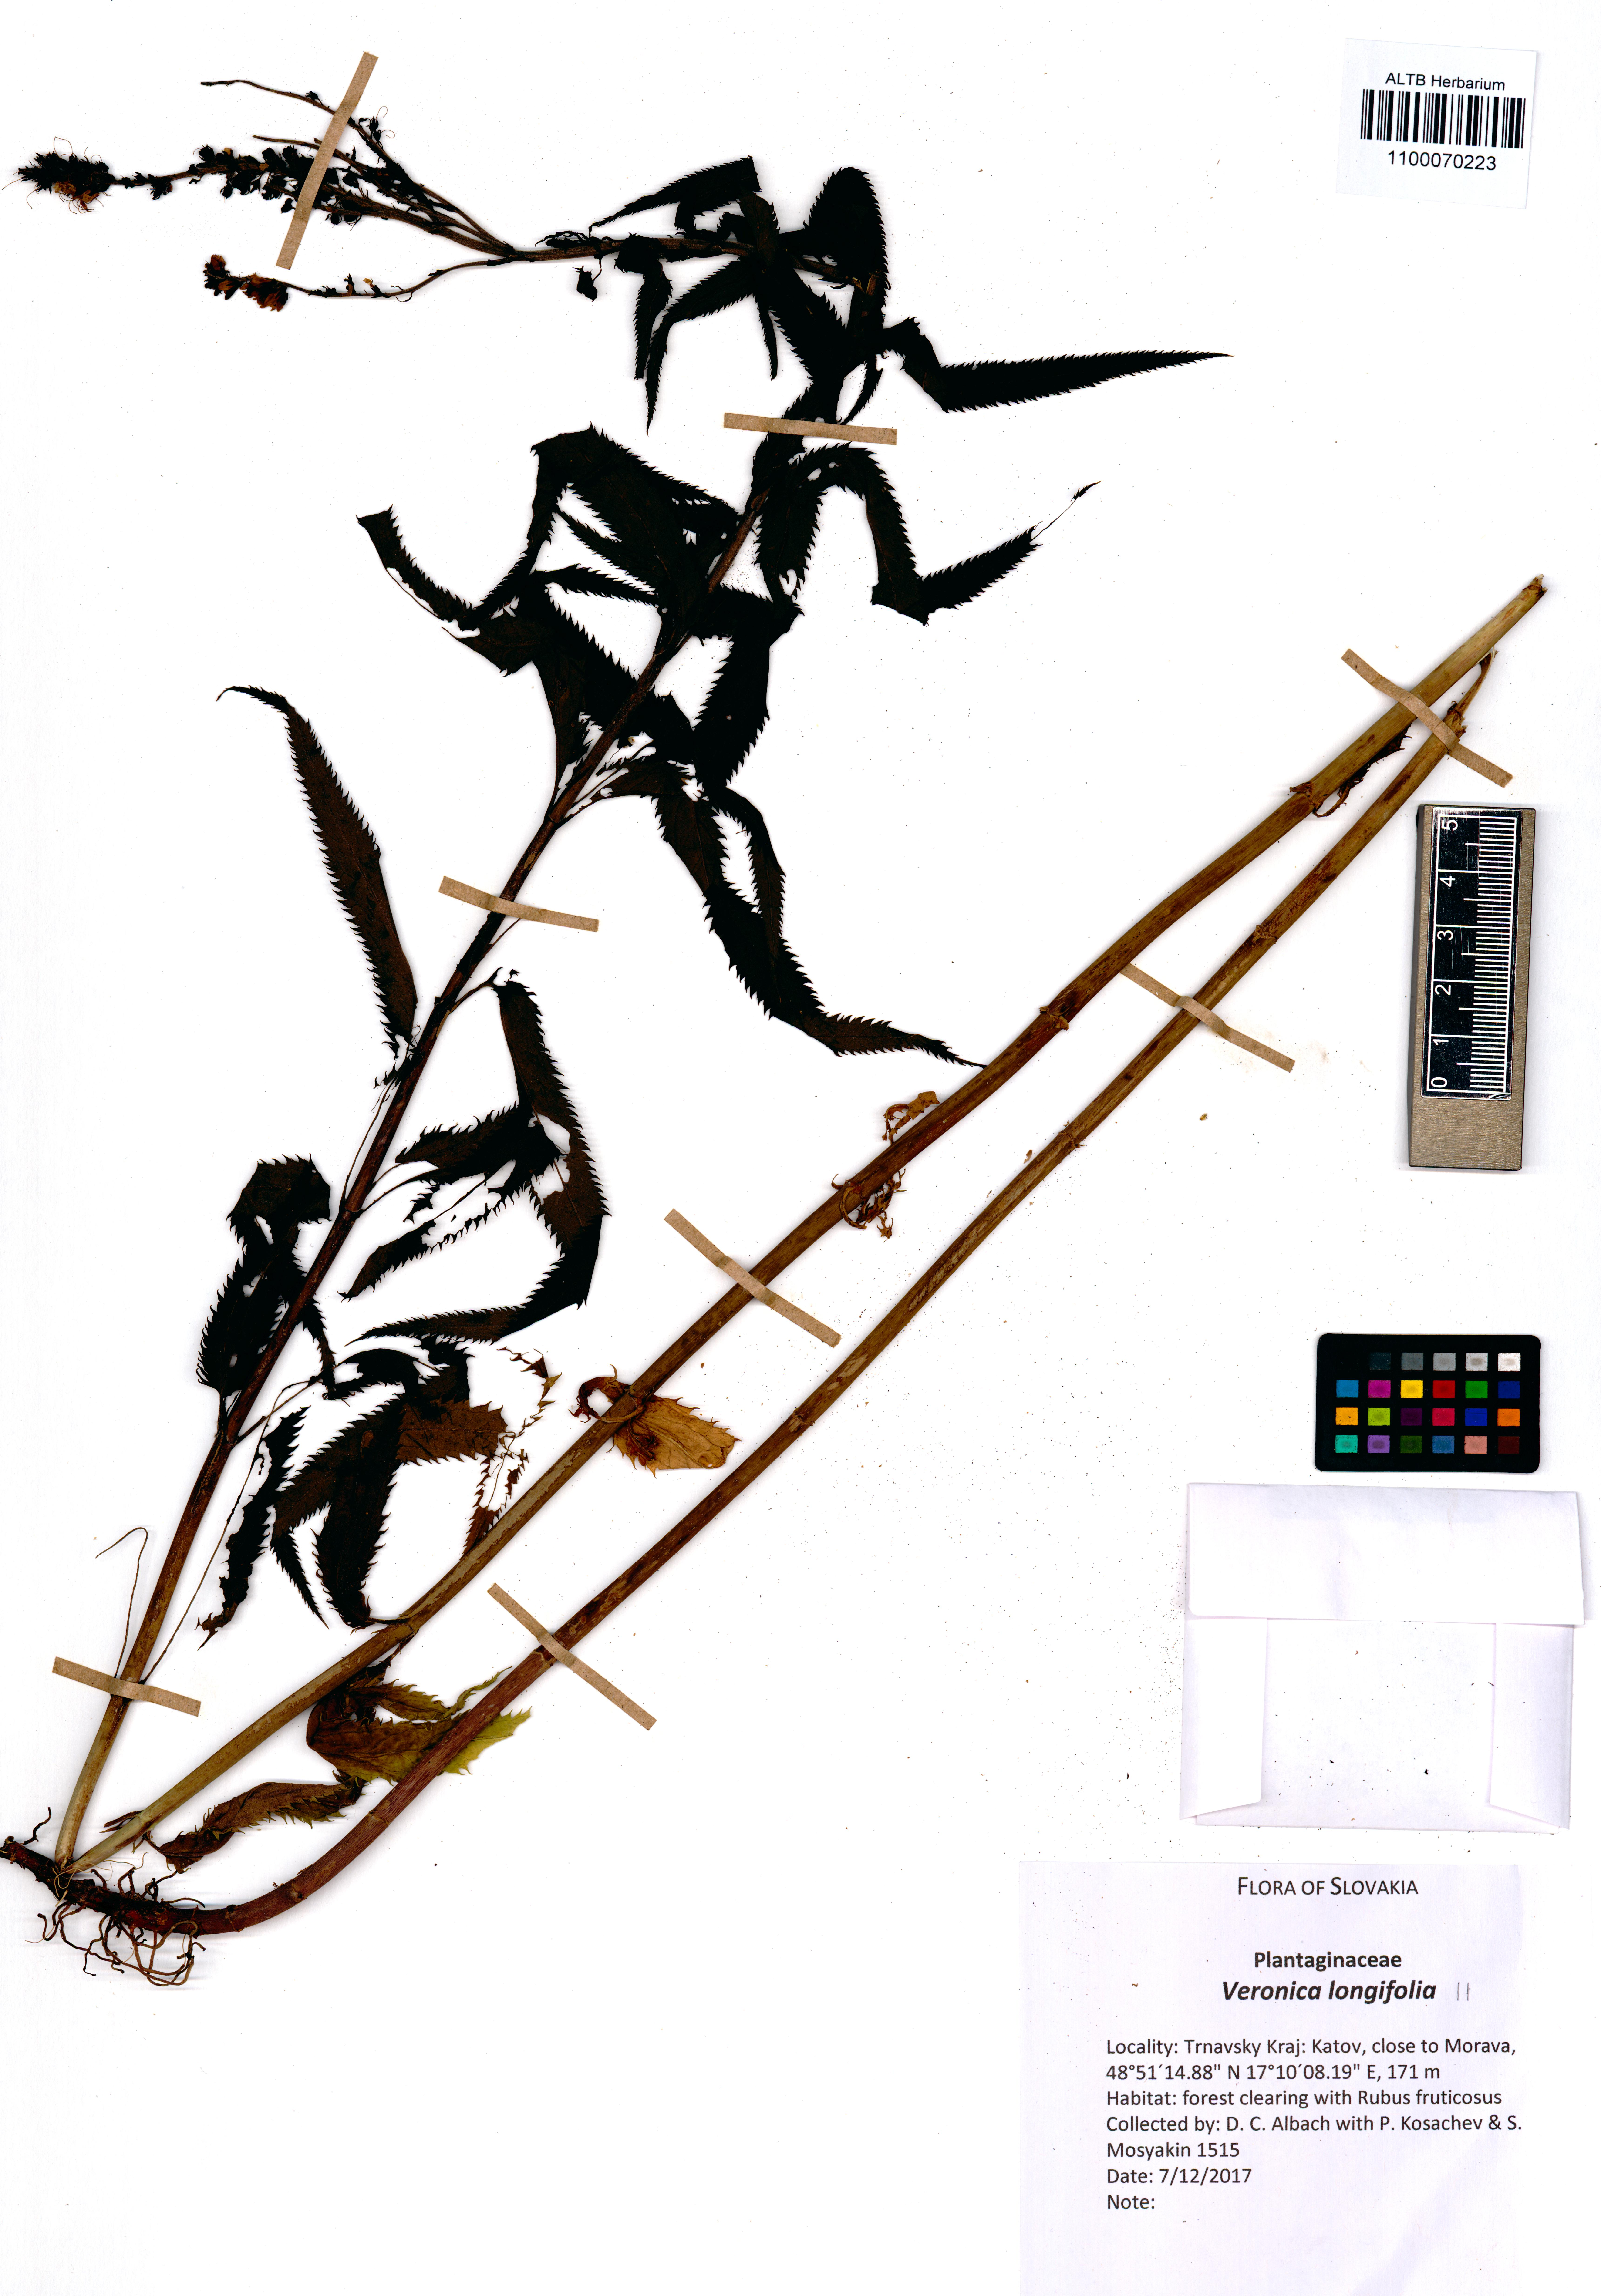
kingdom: Plantae
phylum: Tracheophyta
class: Magnoliopsida
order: Lamiales
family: Plantaginaceae
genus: Veronica
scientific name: Veronica longifolia
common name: Garden speedwell
